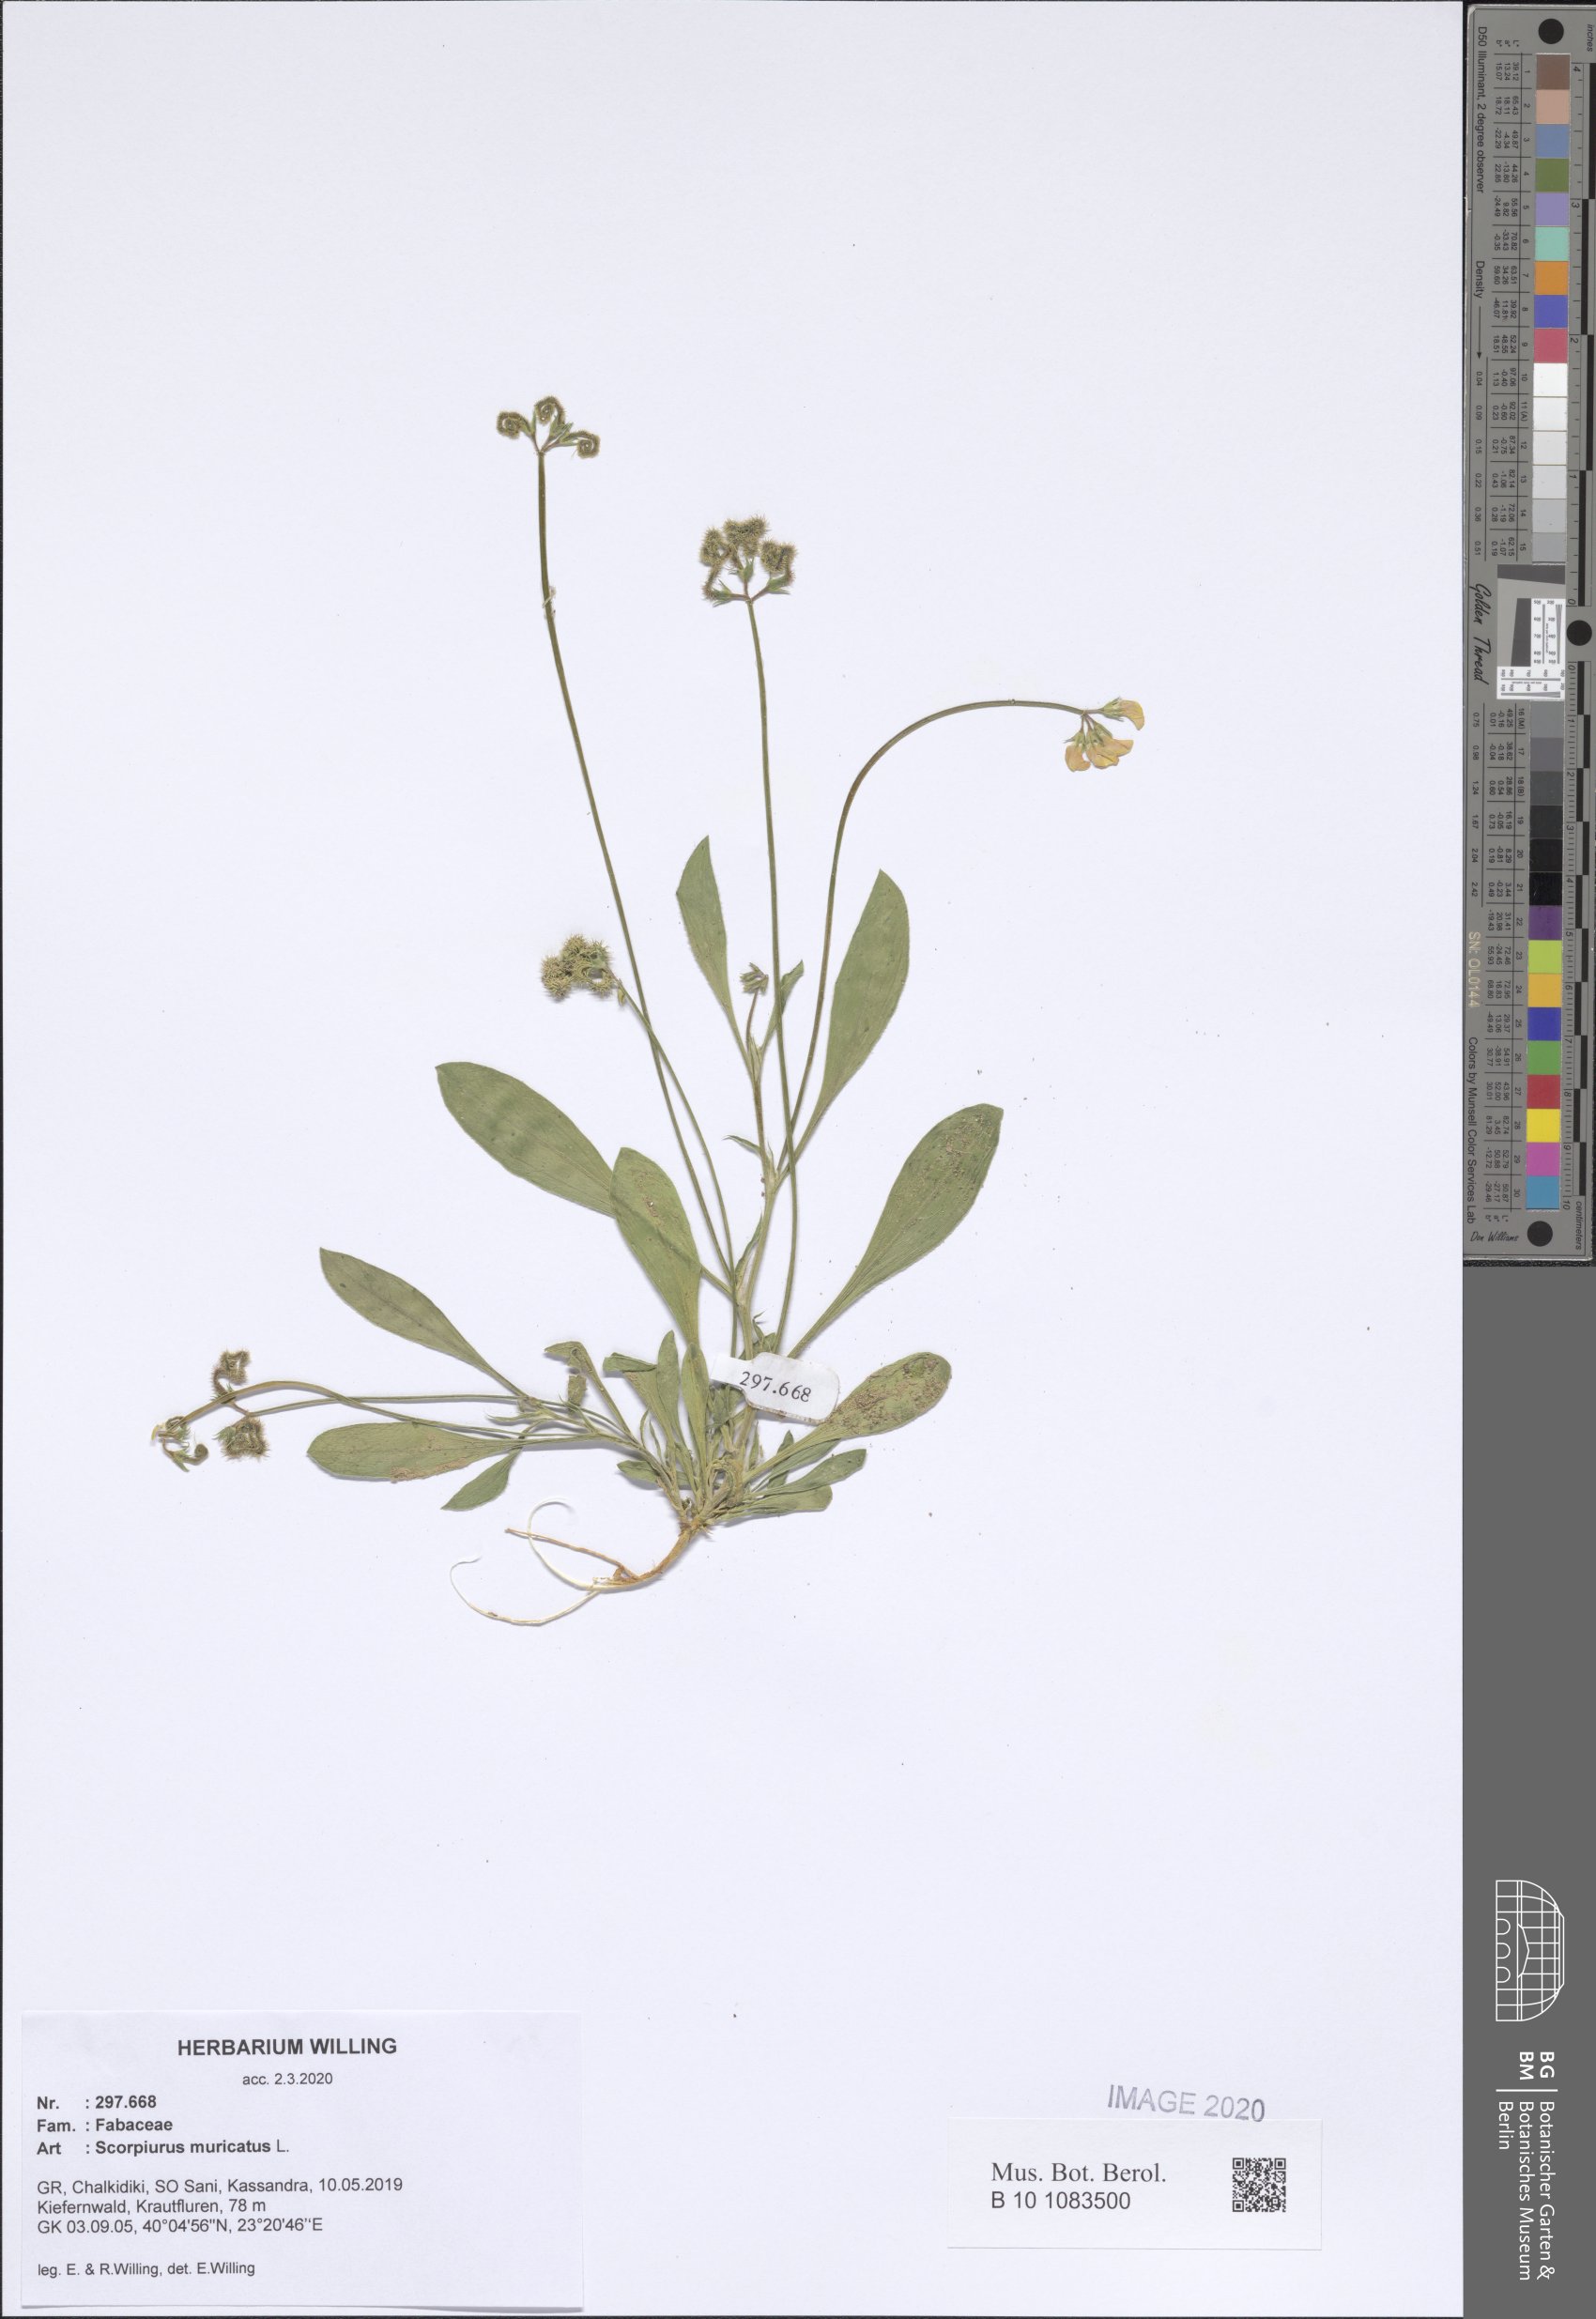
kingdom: Plantae
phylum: Tracheophyta
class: Magnoliopsida
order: Fabales
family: Fabaceae
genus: Scorpiurus
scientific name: Scorpiurus muricatus
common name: Caterpillar-plant
